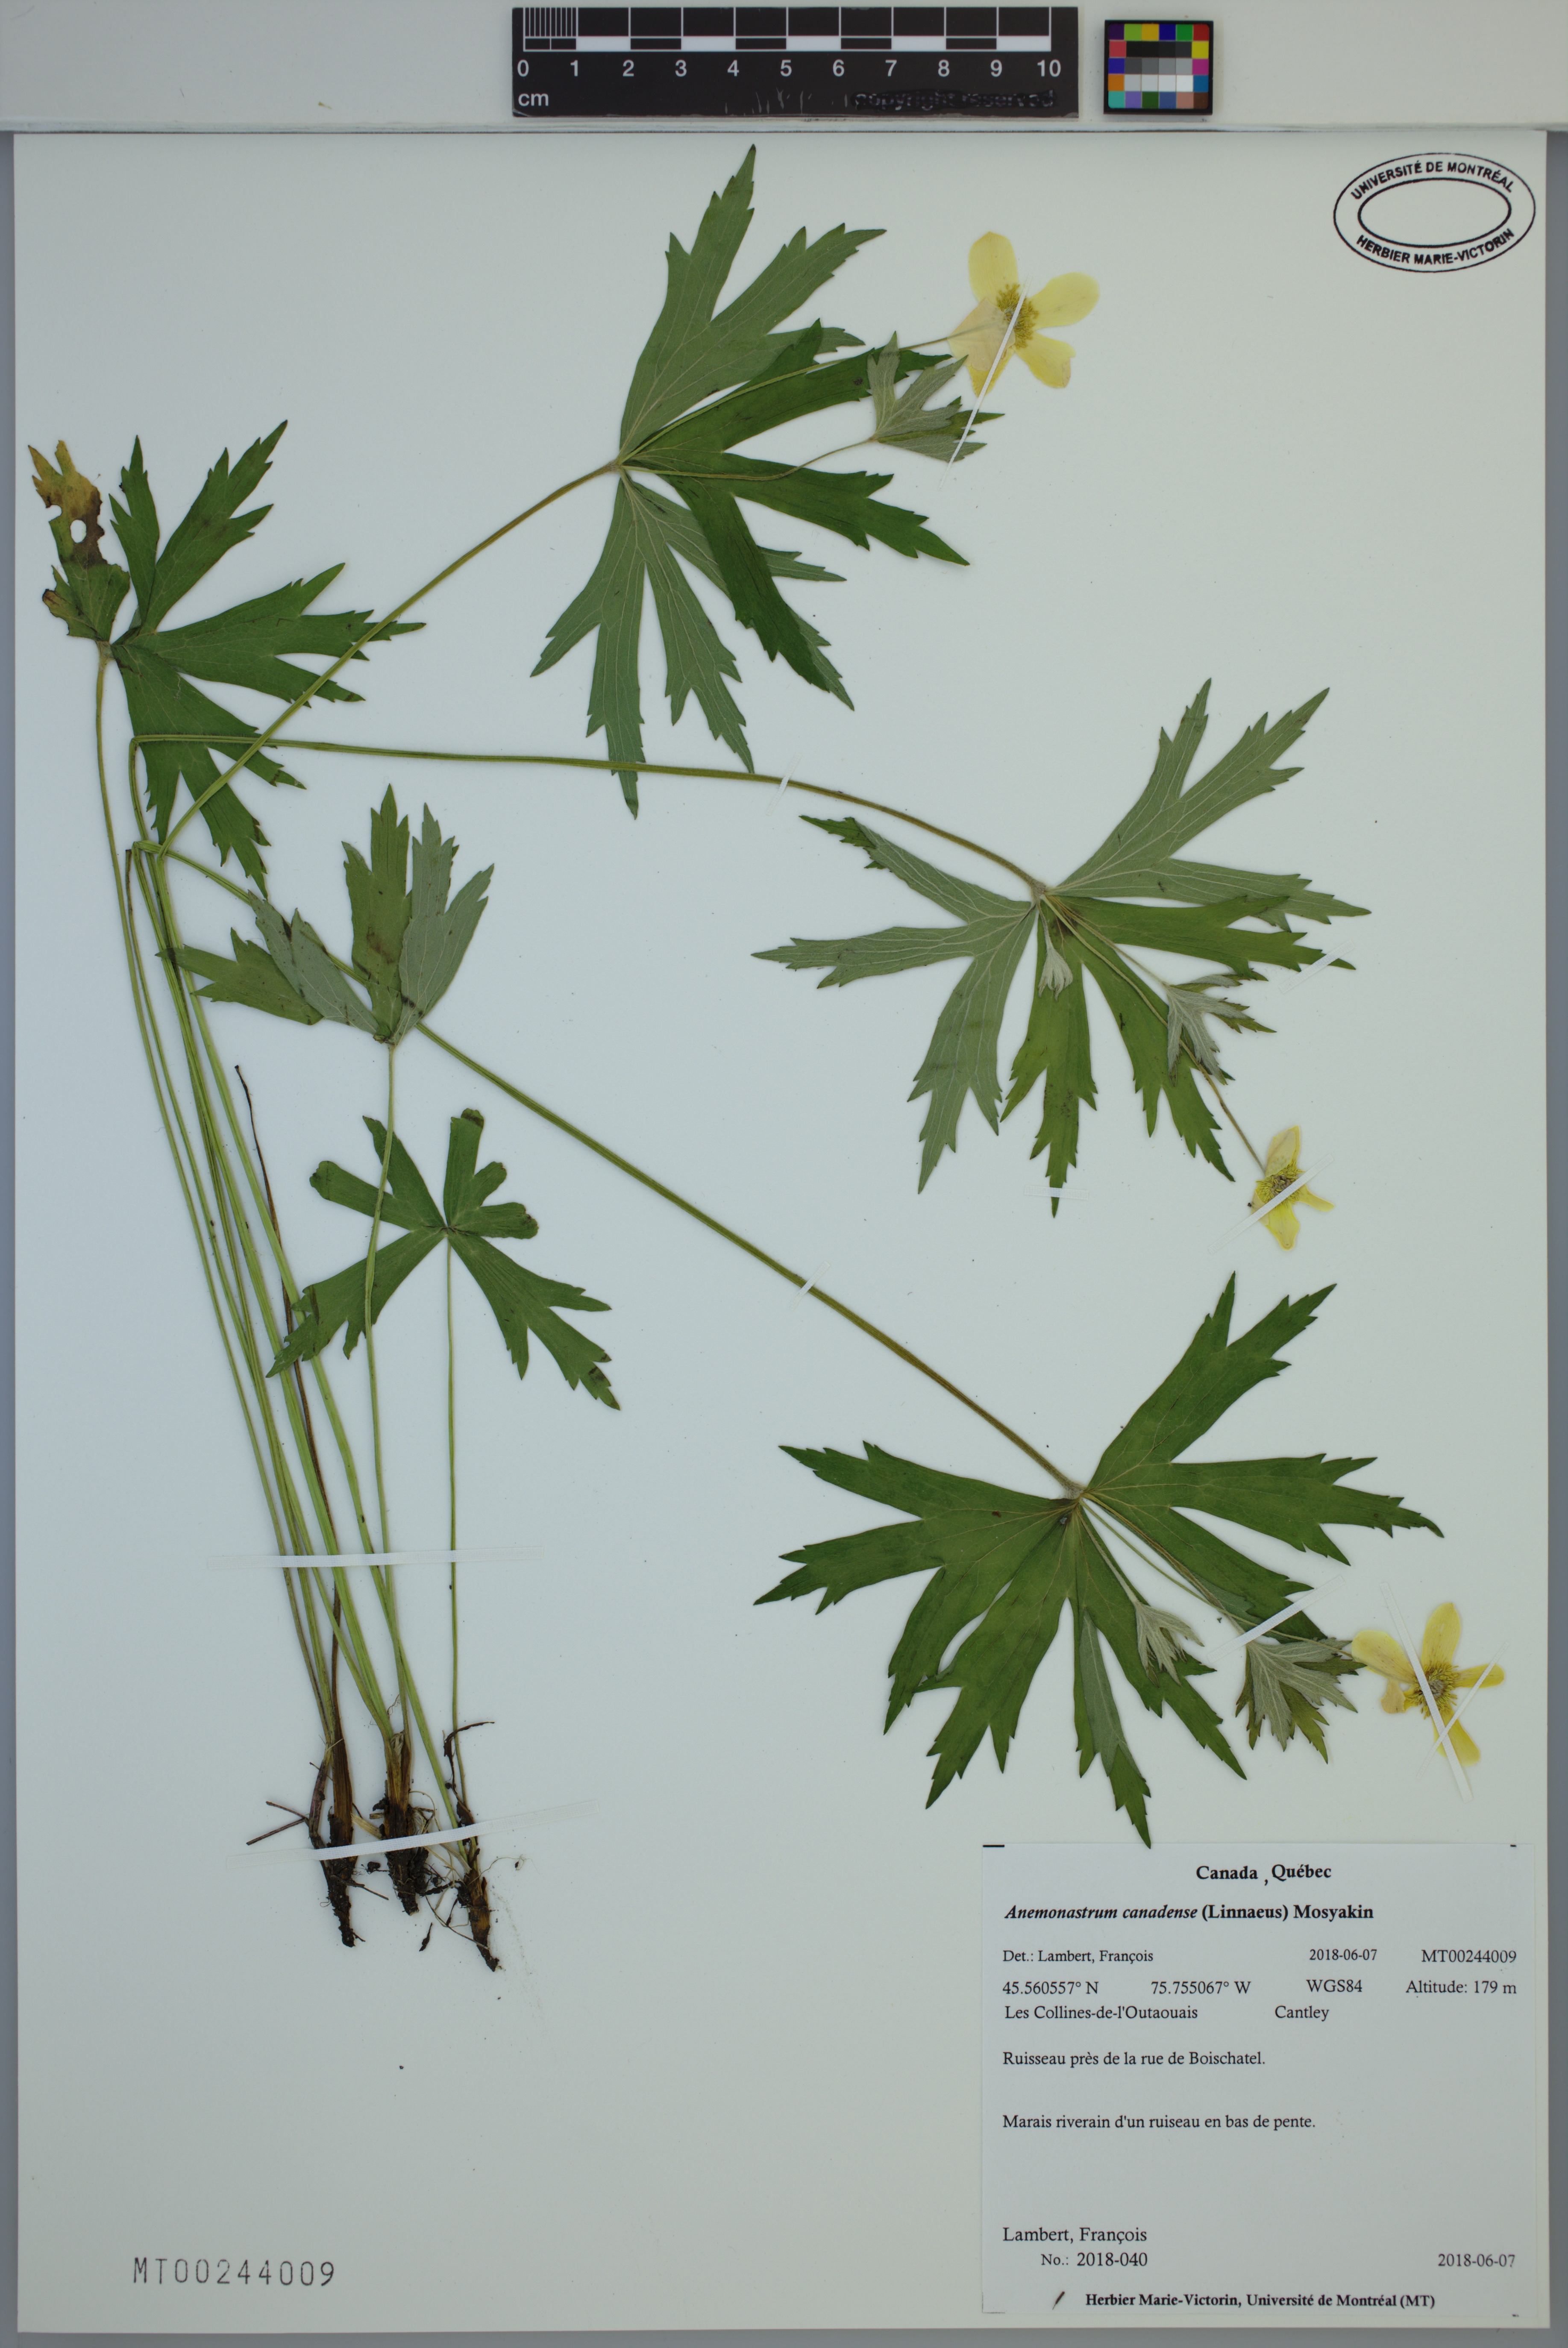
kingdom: Plantae
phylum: Tracheophyta
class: Magnoliopsida
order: Ranunculales
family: Ranunculaceae
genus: Anemonastrum
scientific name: Anemonastrum canadense
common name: Canada anemone
